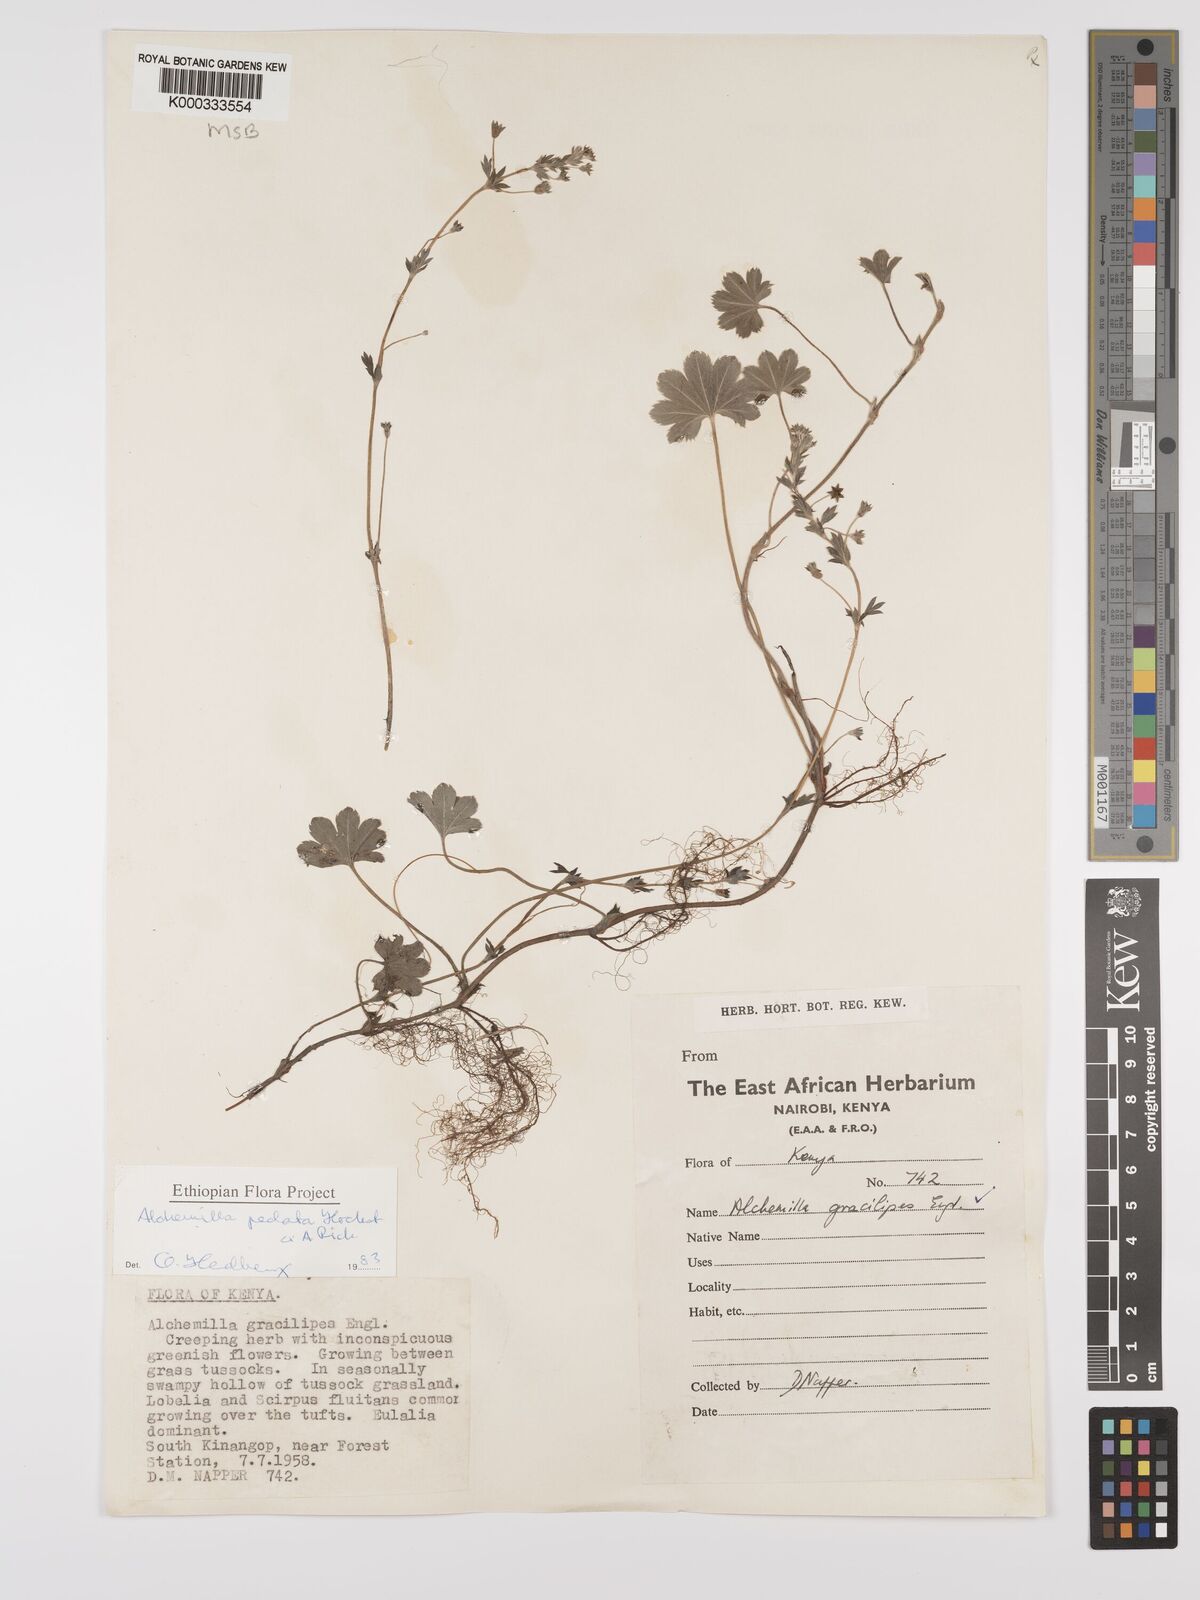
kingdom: Plantae
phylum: Tracheophyta
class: Magnoliopsida
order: Rosales
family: Rosaceae
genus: Alchemilla
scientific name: Alchemilla pedata
